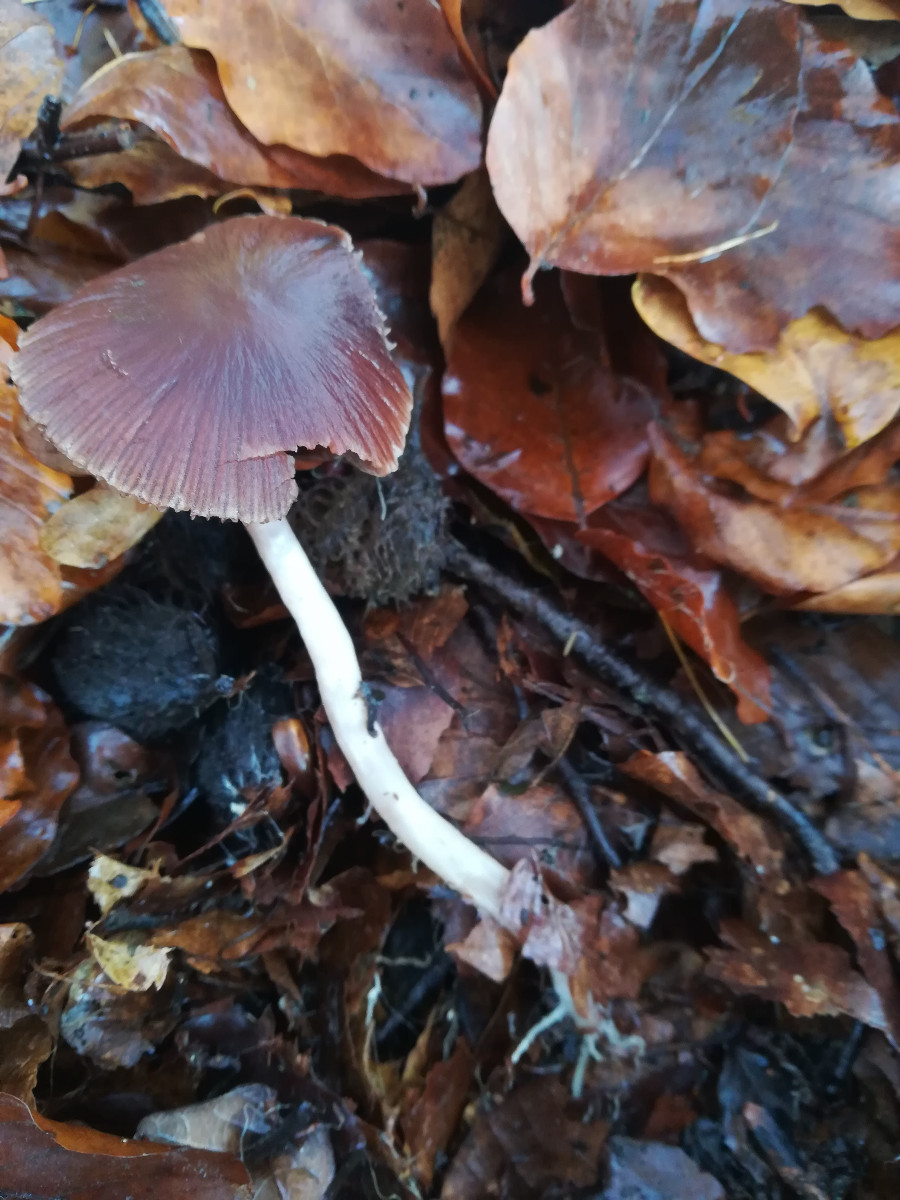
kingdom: Fungi
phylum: Basidiomycota
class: Agaricomycetes
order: Agaricales
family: Psathyrellaceae
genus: Psathyrella
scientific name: Psathyrella bipellis
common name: vinrød mørkhat
